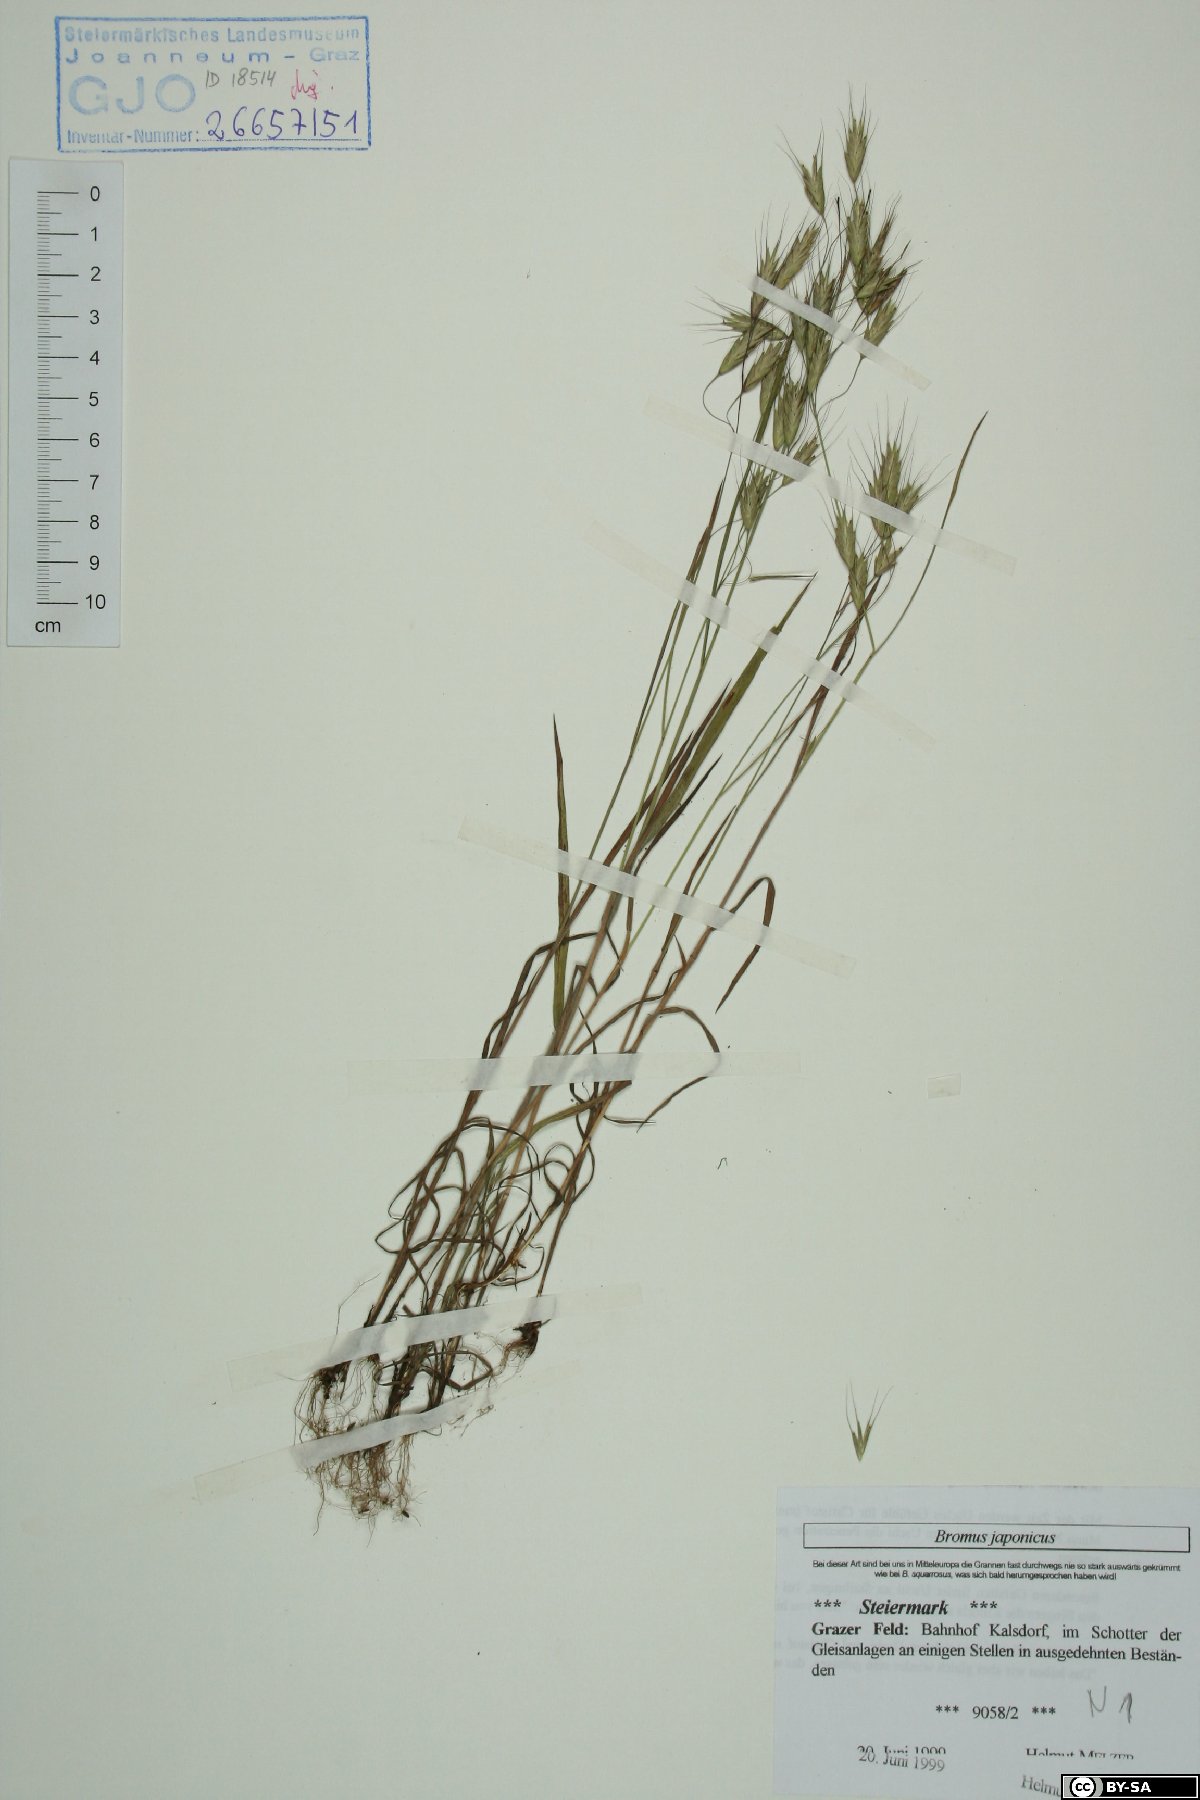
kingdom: Plantae
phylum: Tracheophyta
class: Liliopsida
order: Poales
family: Poaceae
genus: Bromus
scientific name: Bromus japonicus
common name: Japanese brome
